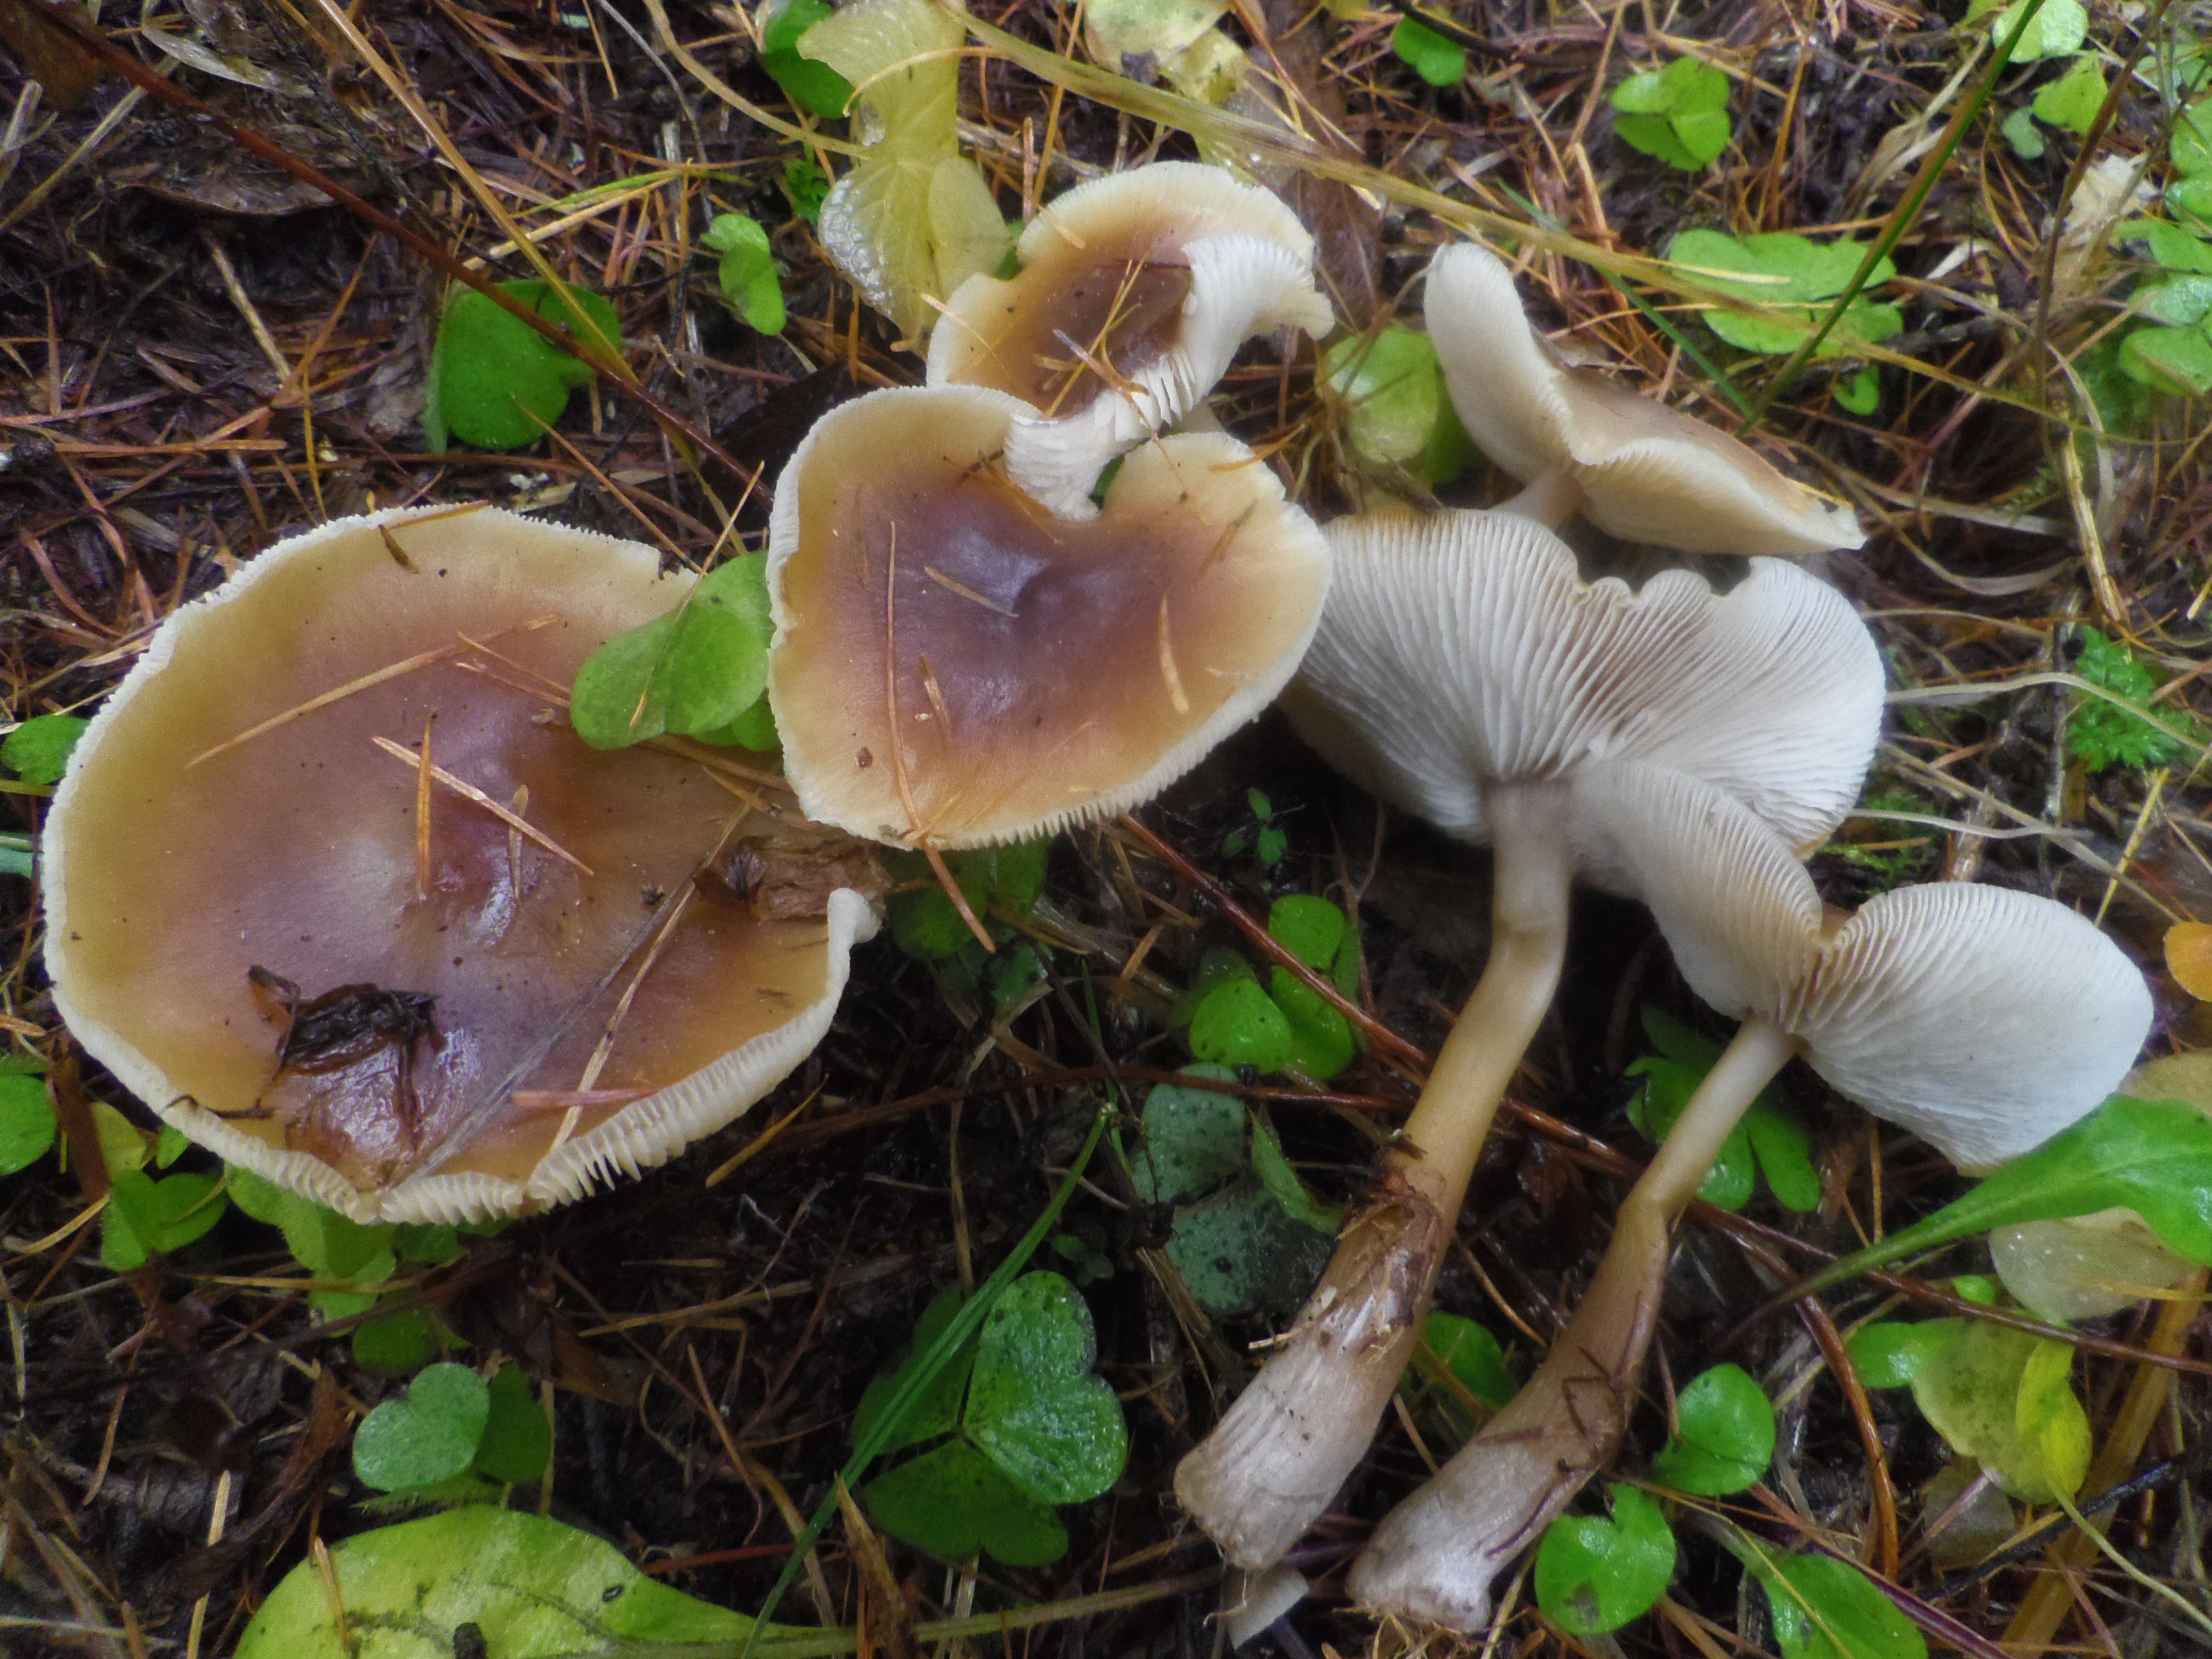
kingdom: Fungi
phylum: Basidiomycota
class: Agaricomycetes
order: Agaricales
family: Omphalotaceae
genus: Rhodocollybia
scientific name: Rhodocollybia asema
